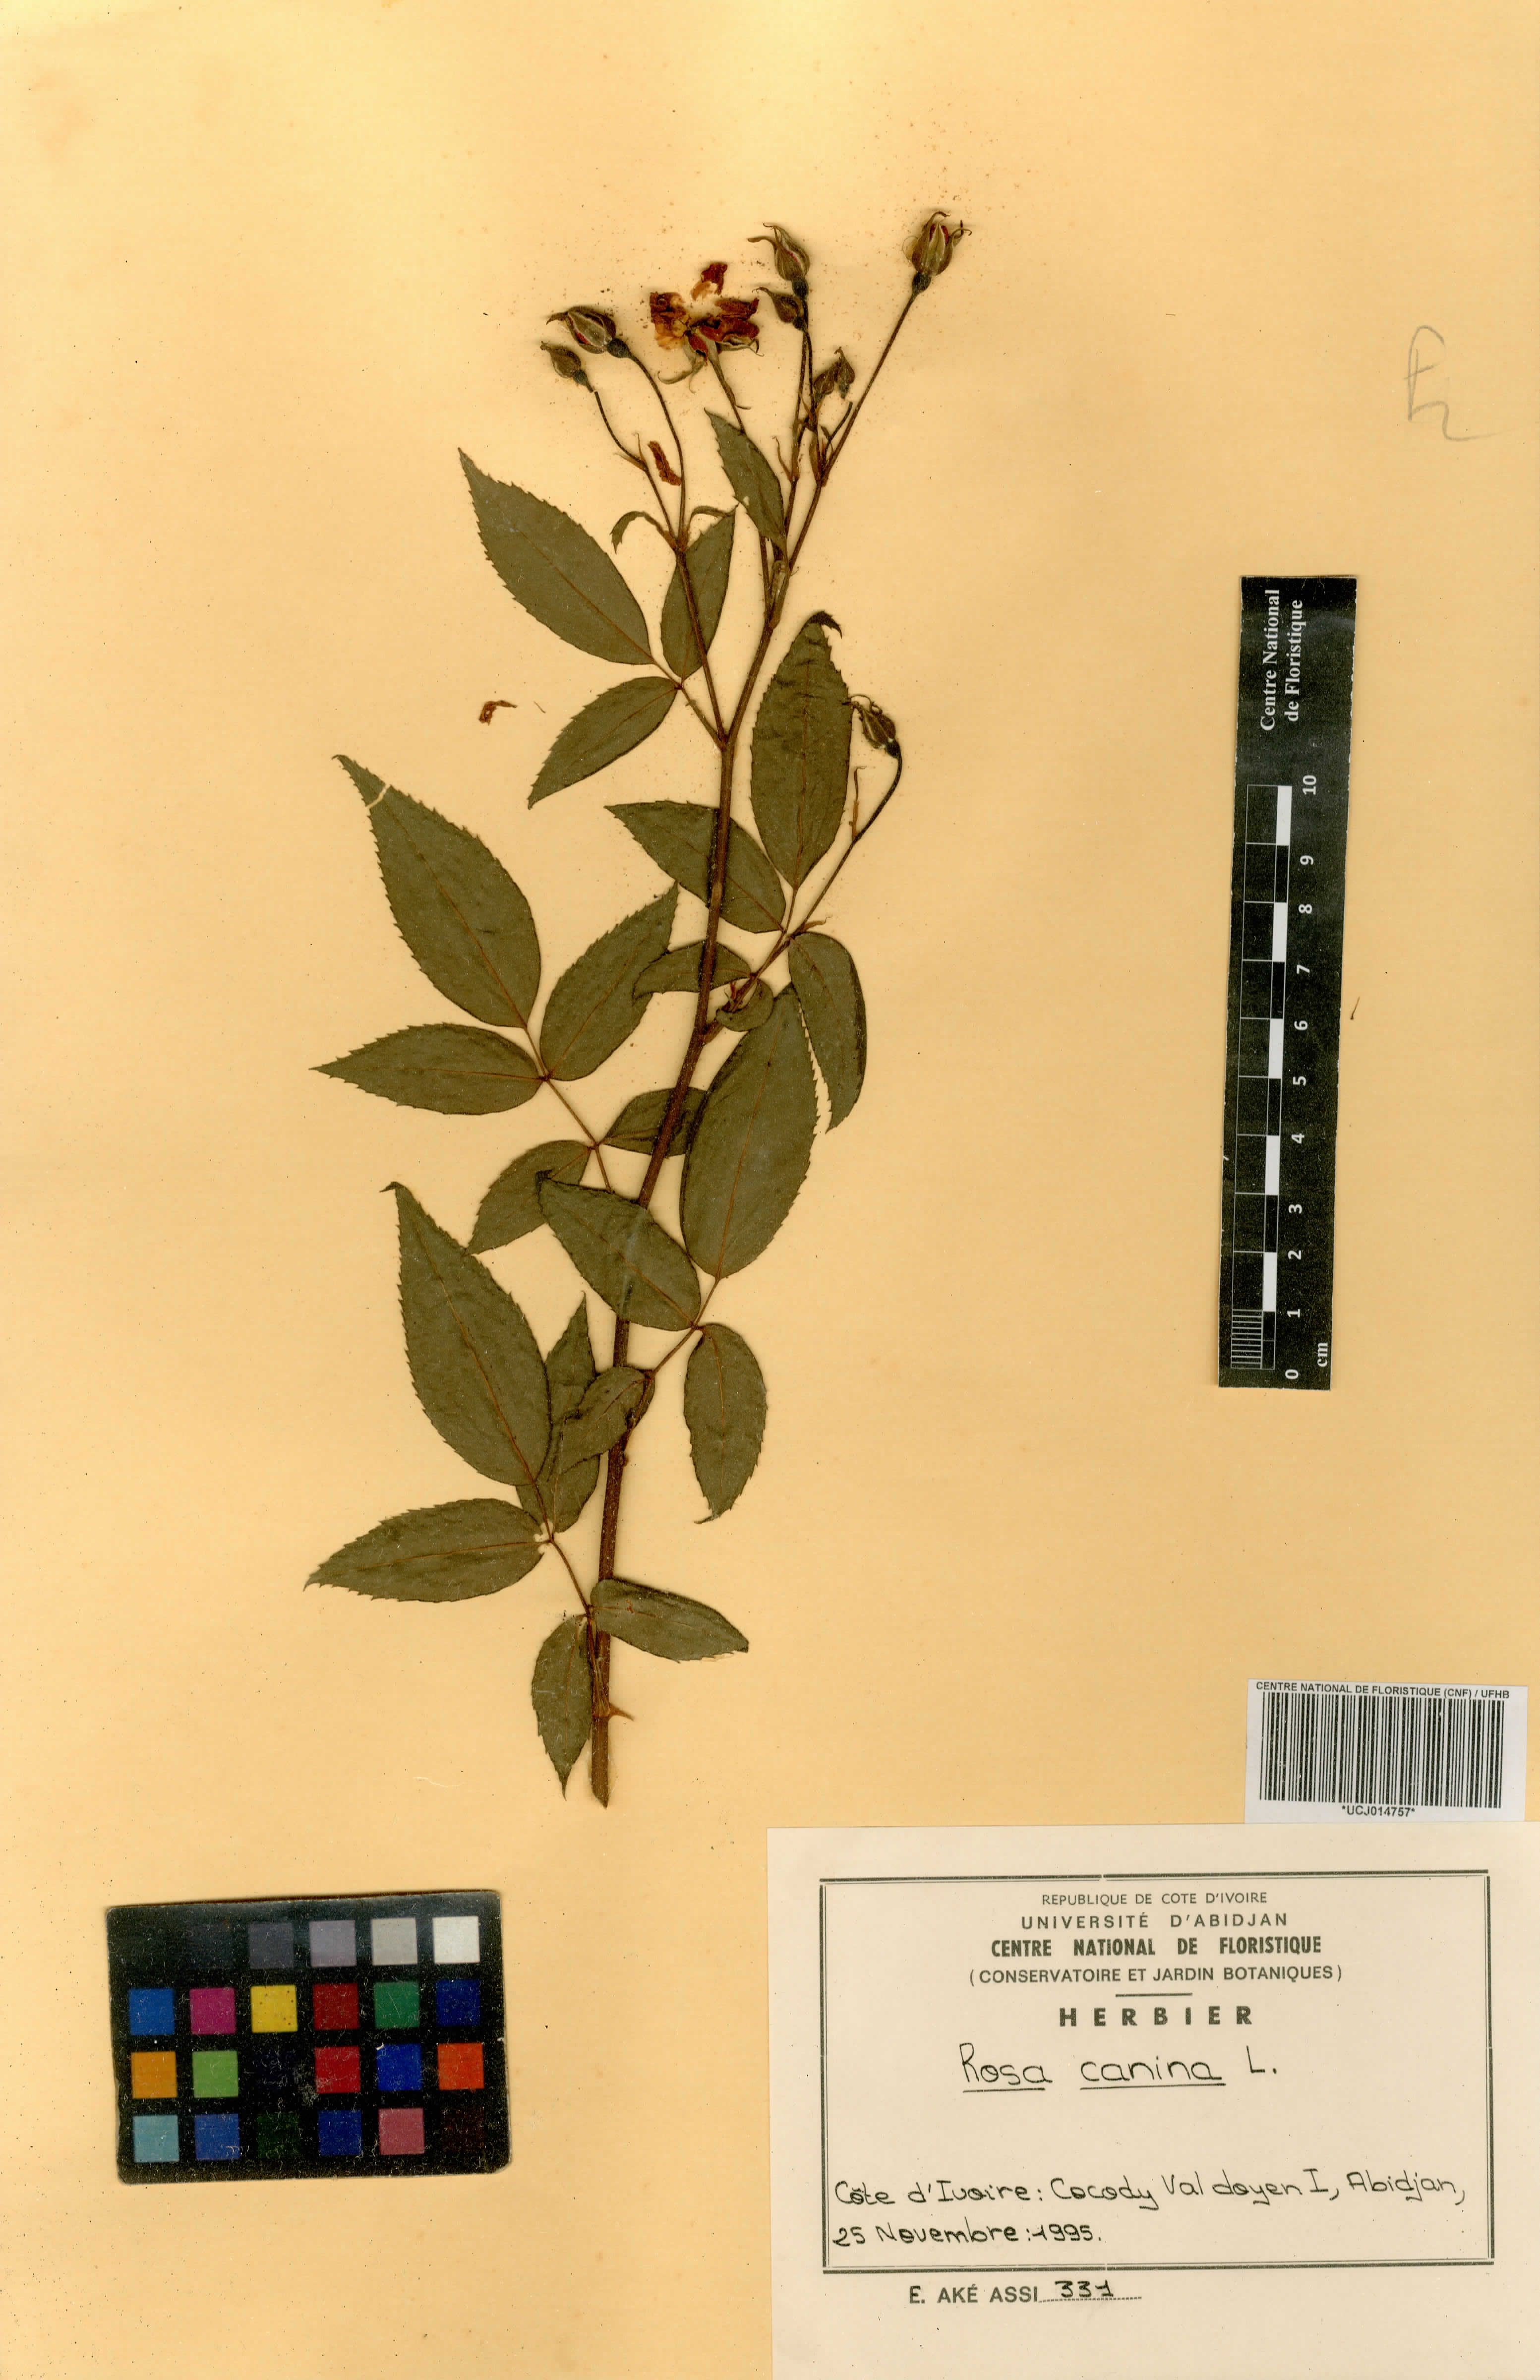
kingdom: Plantae
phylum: Tracheophyta
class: Magnoliopsida
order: Rosales
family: Rosaceae
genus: Rosa
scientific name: Rosa canina
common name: Dog rose
